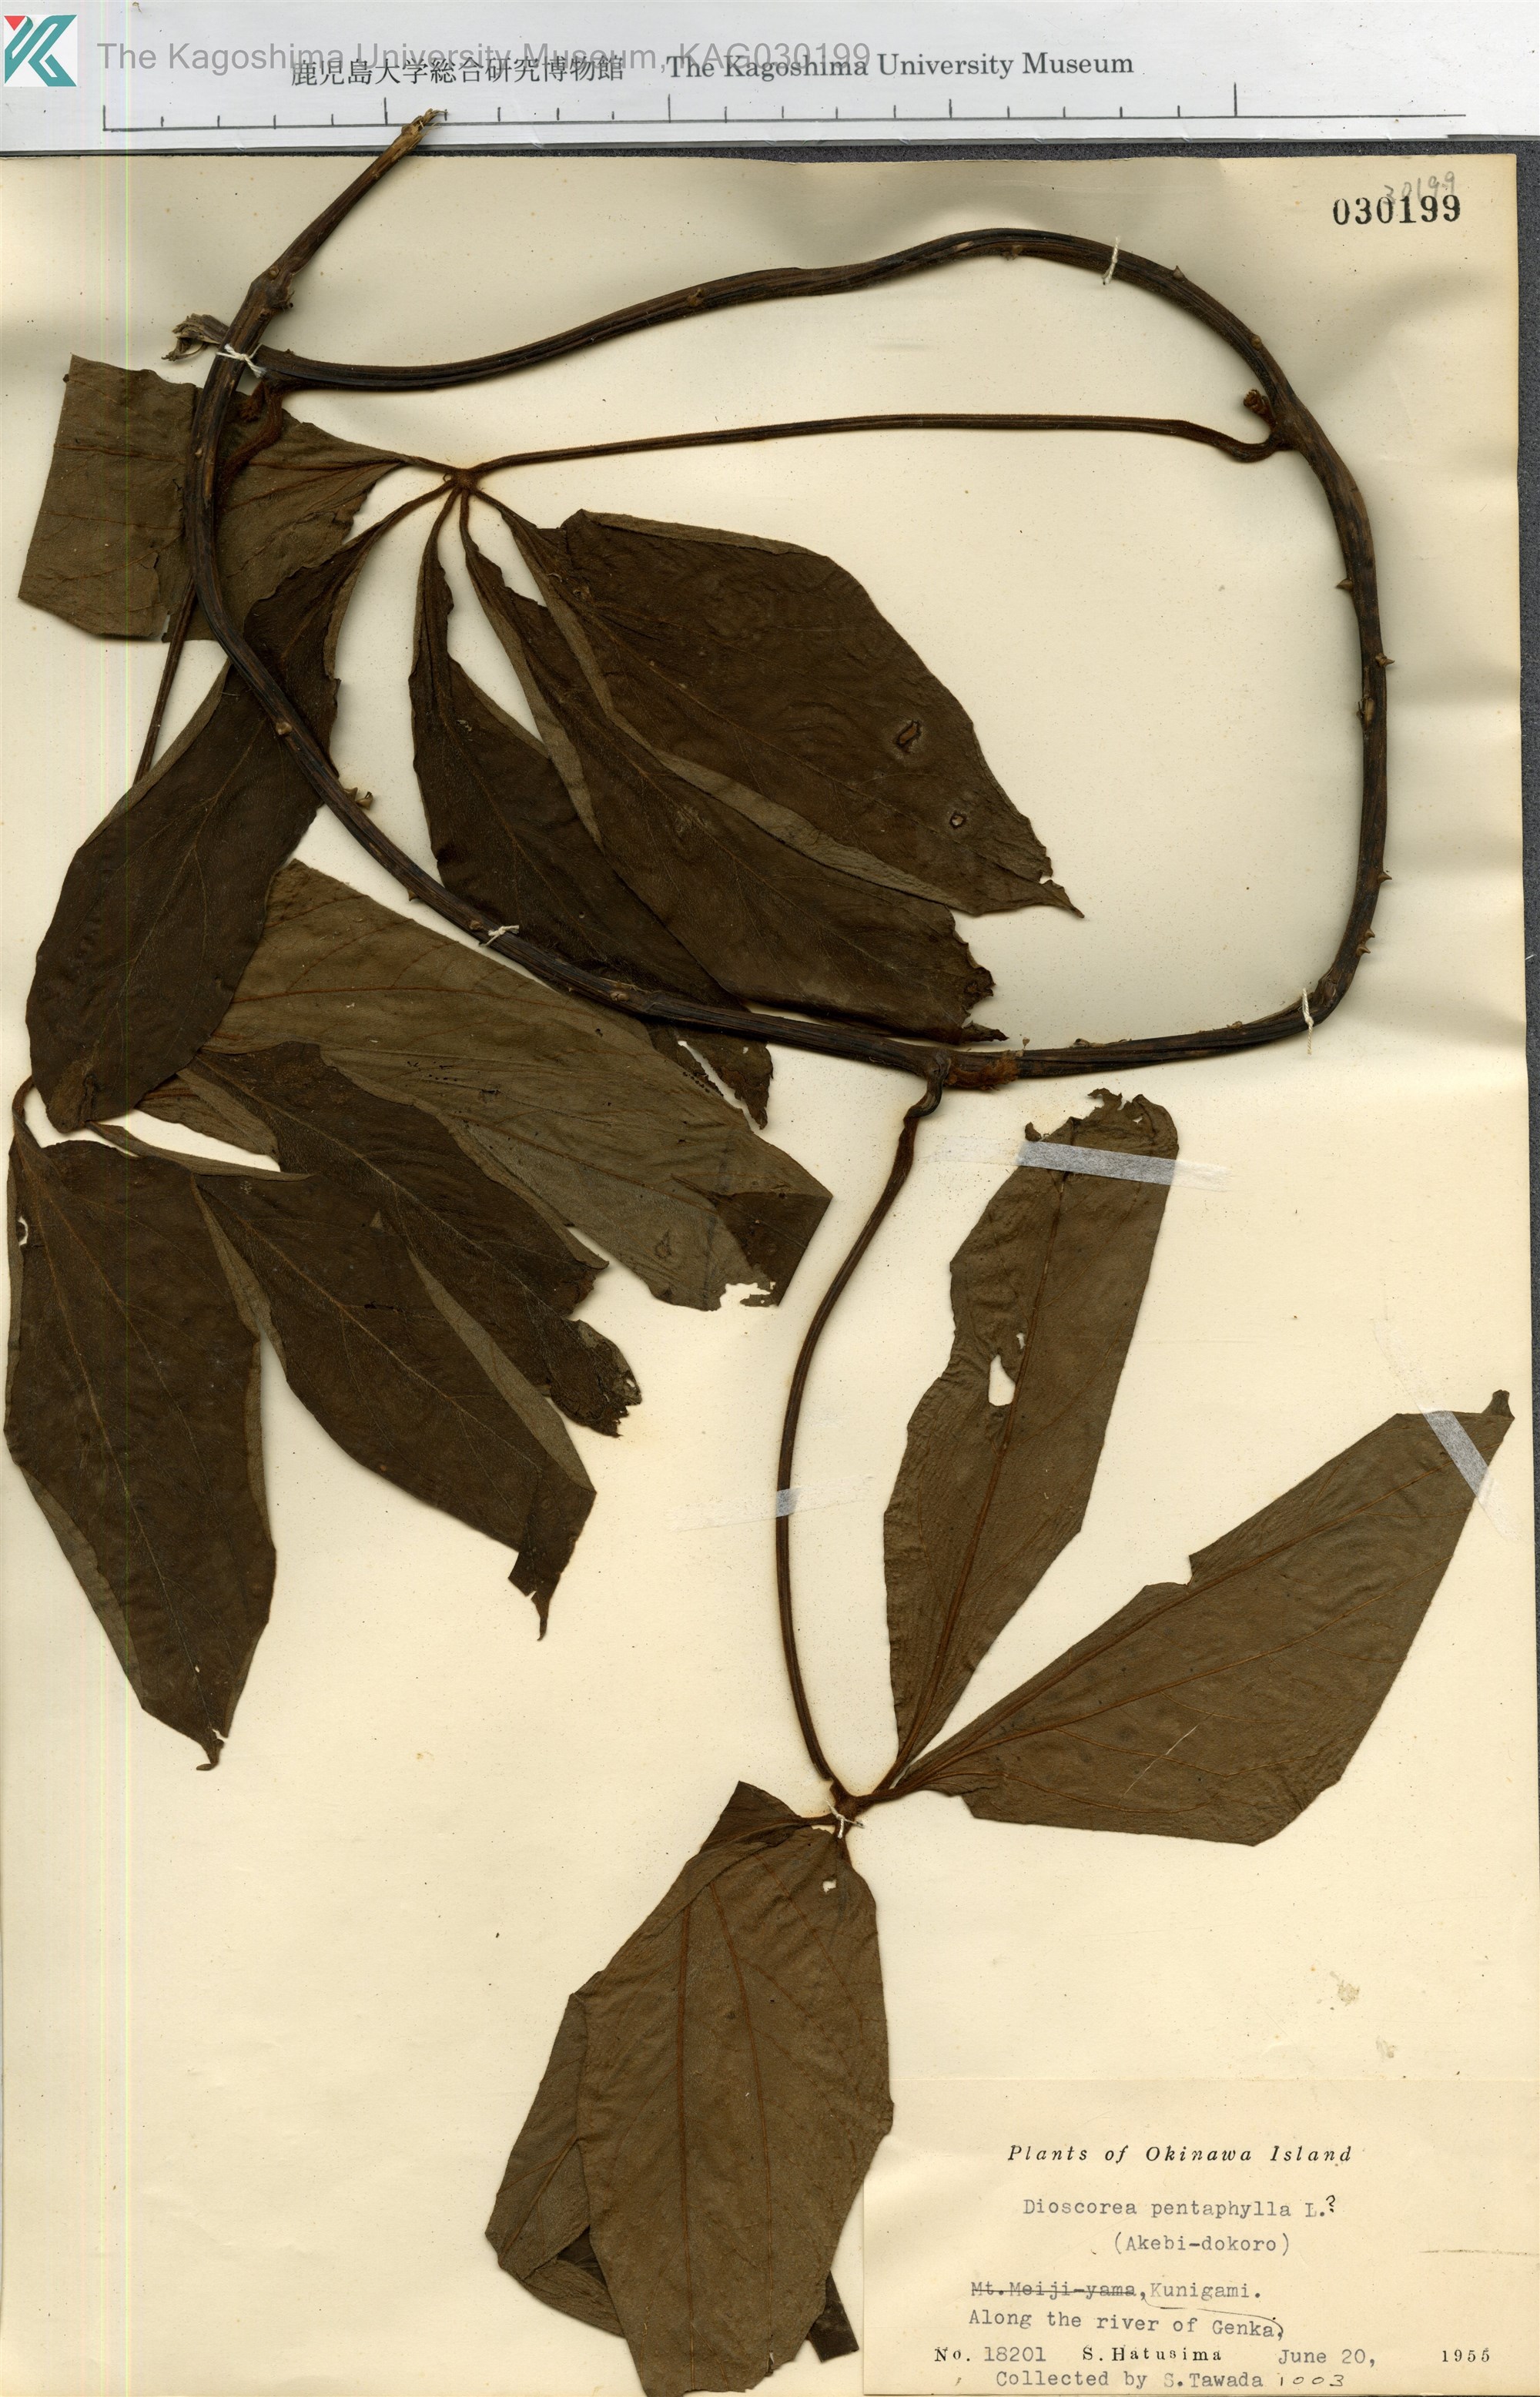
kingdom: Plantae
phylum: Tracheophyta
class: Liliopsida
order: Dioscoreales
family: Dioscoreaceae
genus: Dioscorea
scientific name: Dioscorea pentaphylla
